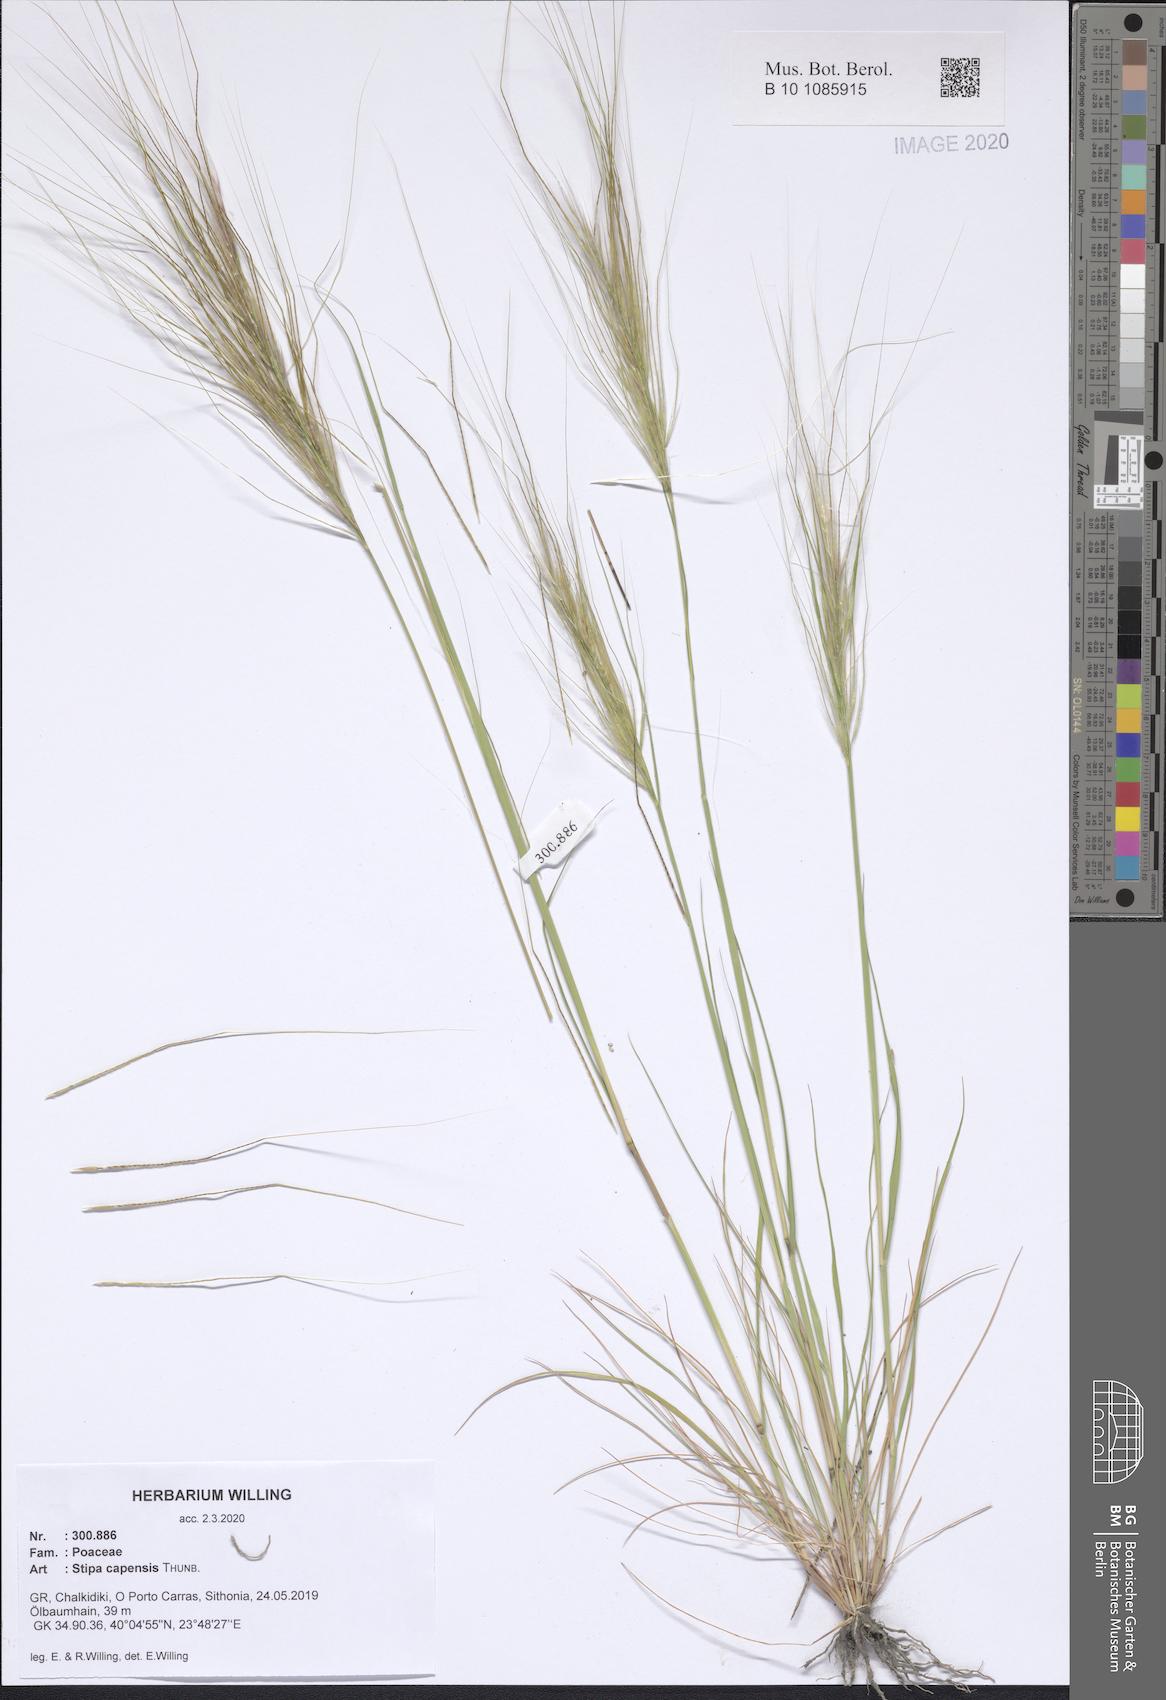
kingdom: Plantae
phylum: Tracheophyta
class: Liliopsida
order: Poales
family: Poaceae
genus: Stipellula
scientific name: Stipellula capensis
